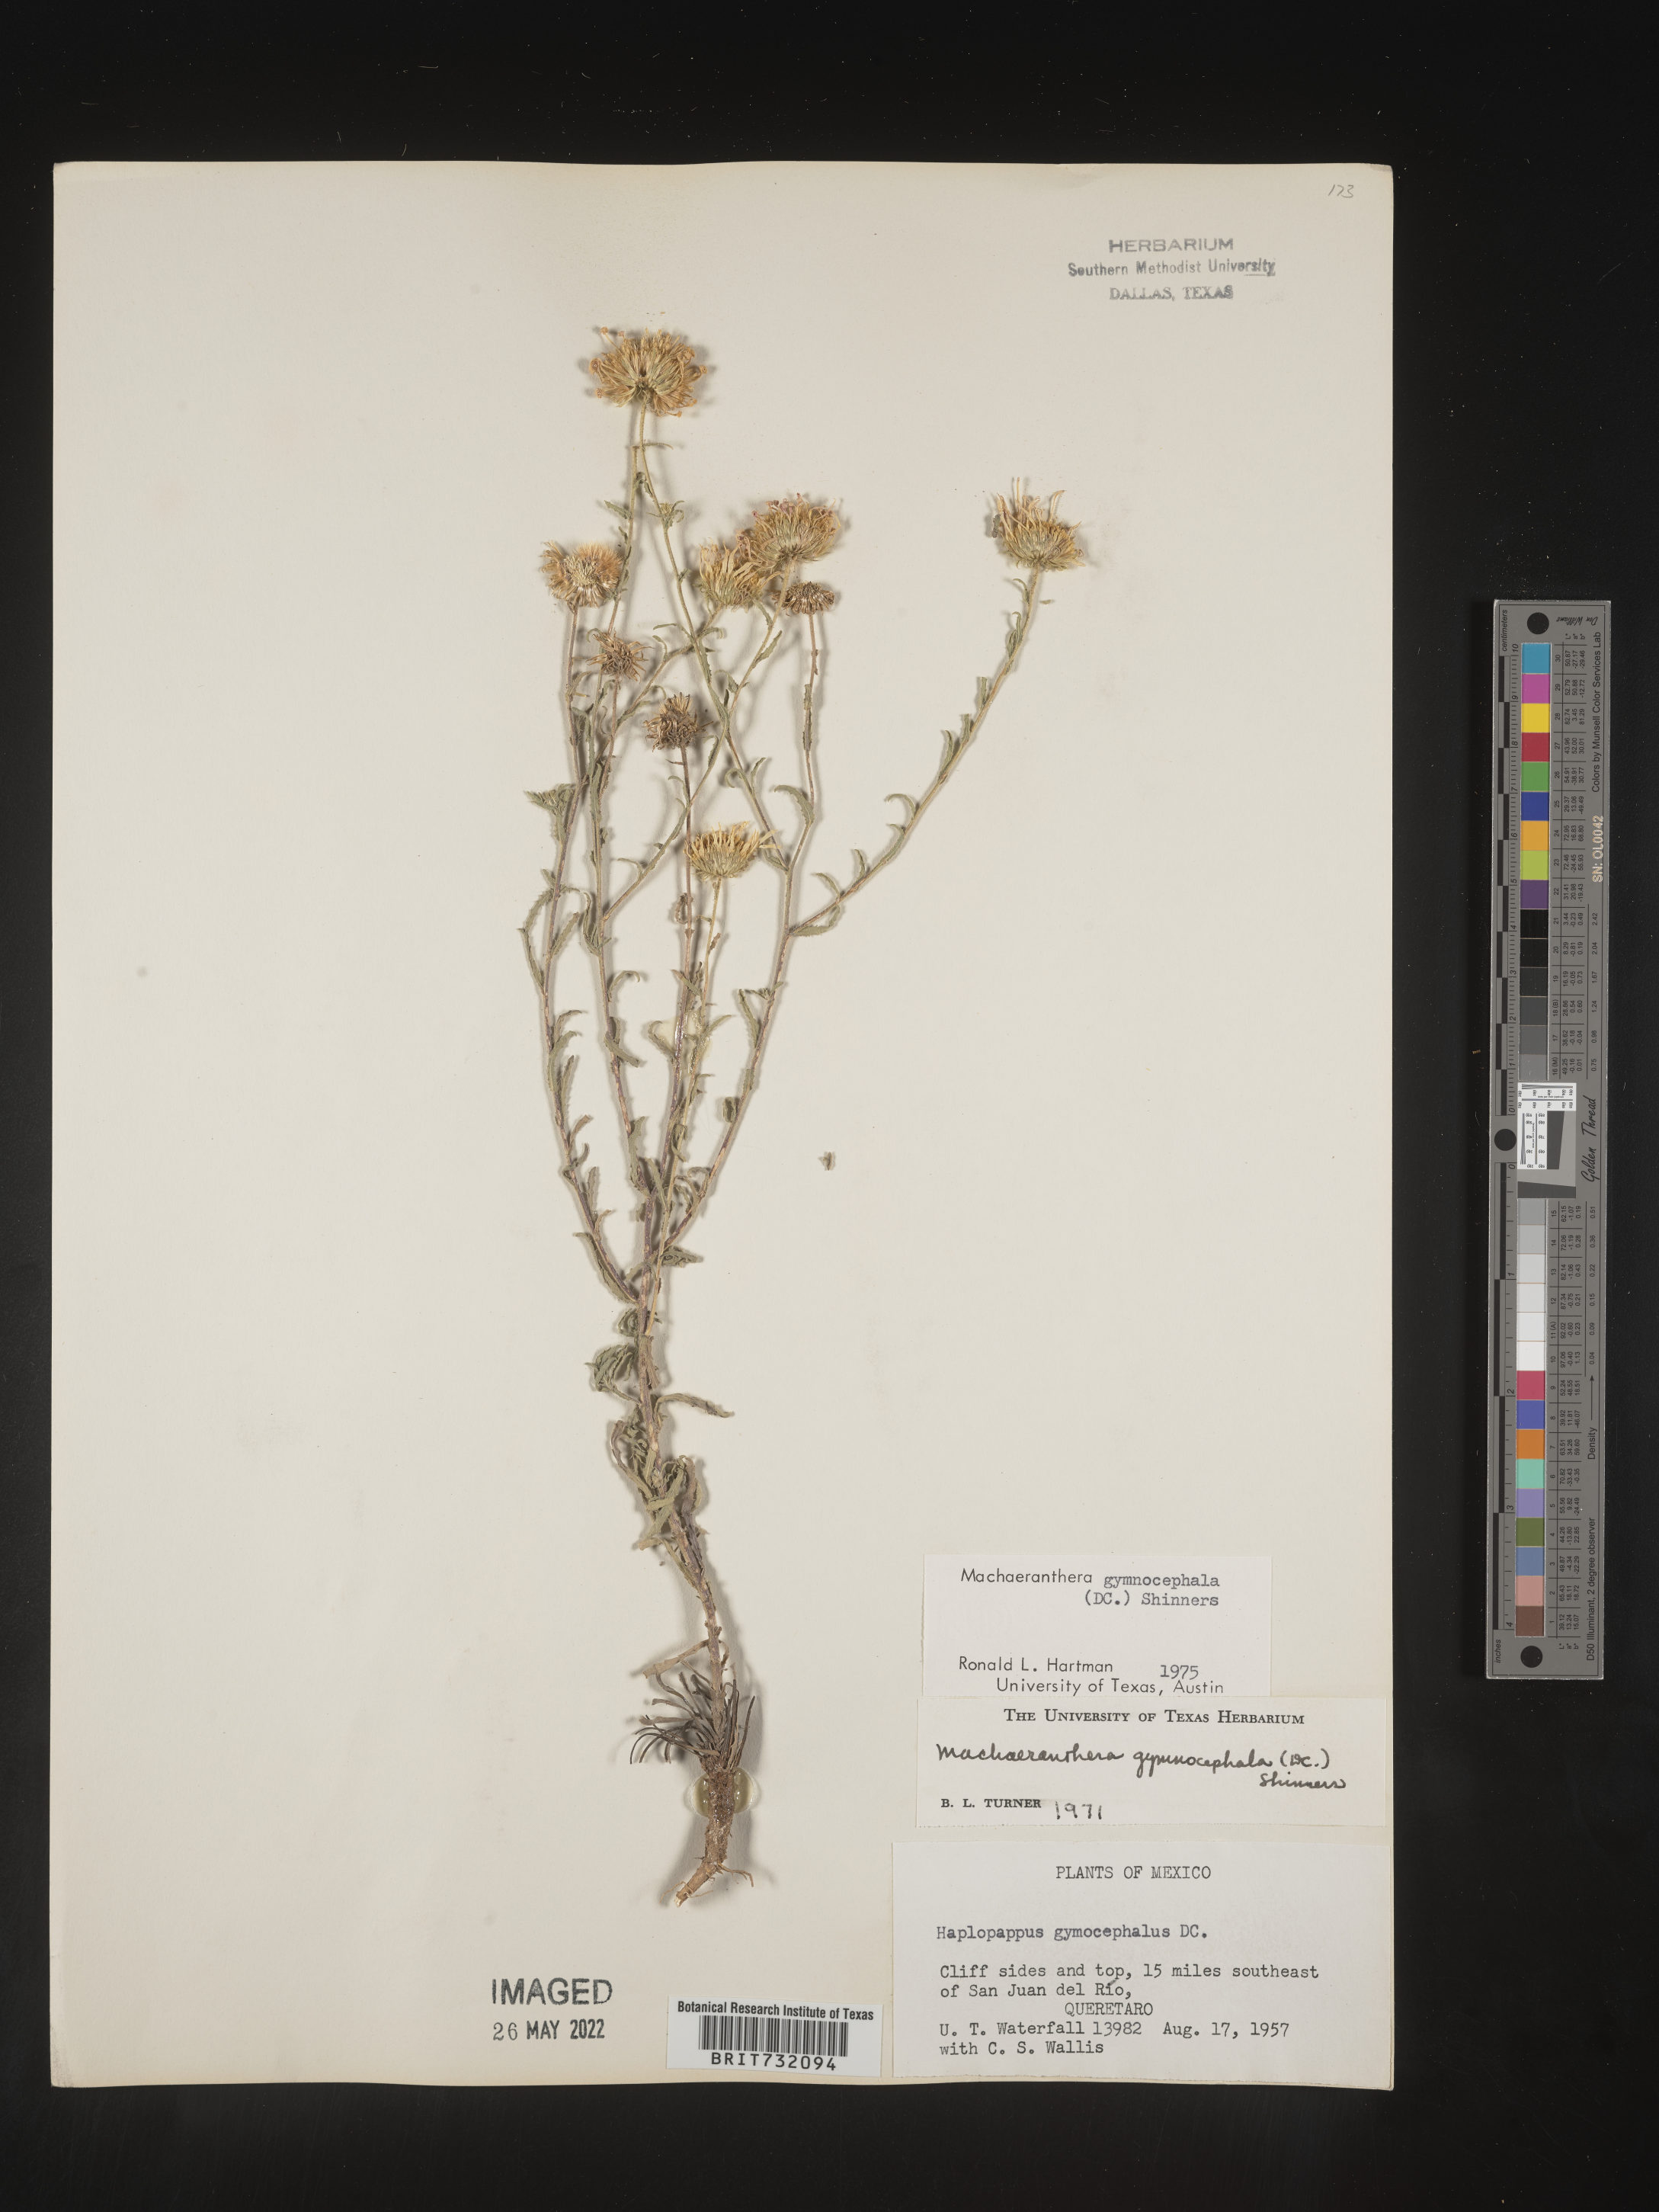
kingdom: Plantae
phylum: Tracheophyta
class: Magnoliopsida
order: Asterales
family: Asteraceae
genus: Xanthisma
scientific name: Xanthisma blephariphyllum
